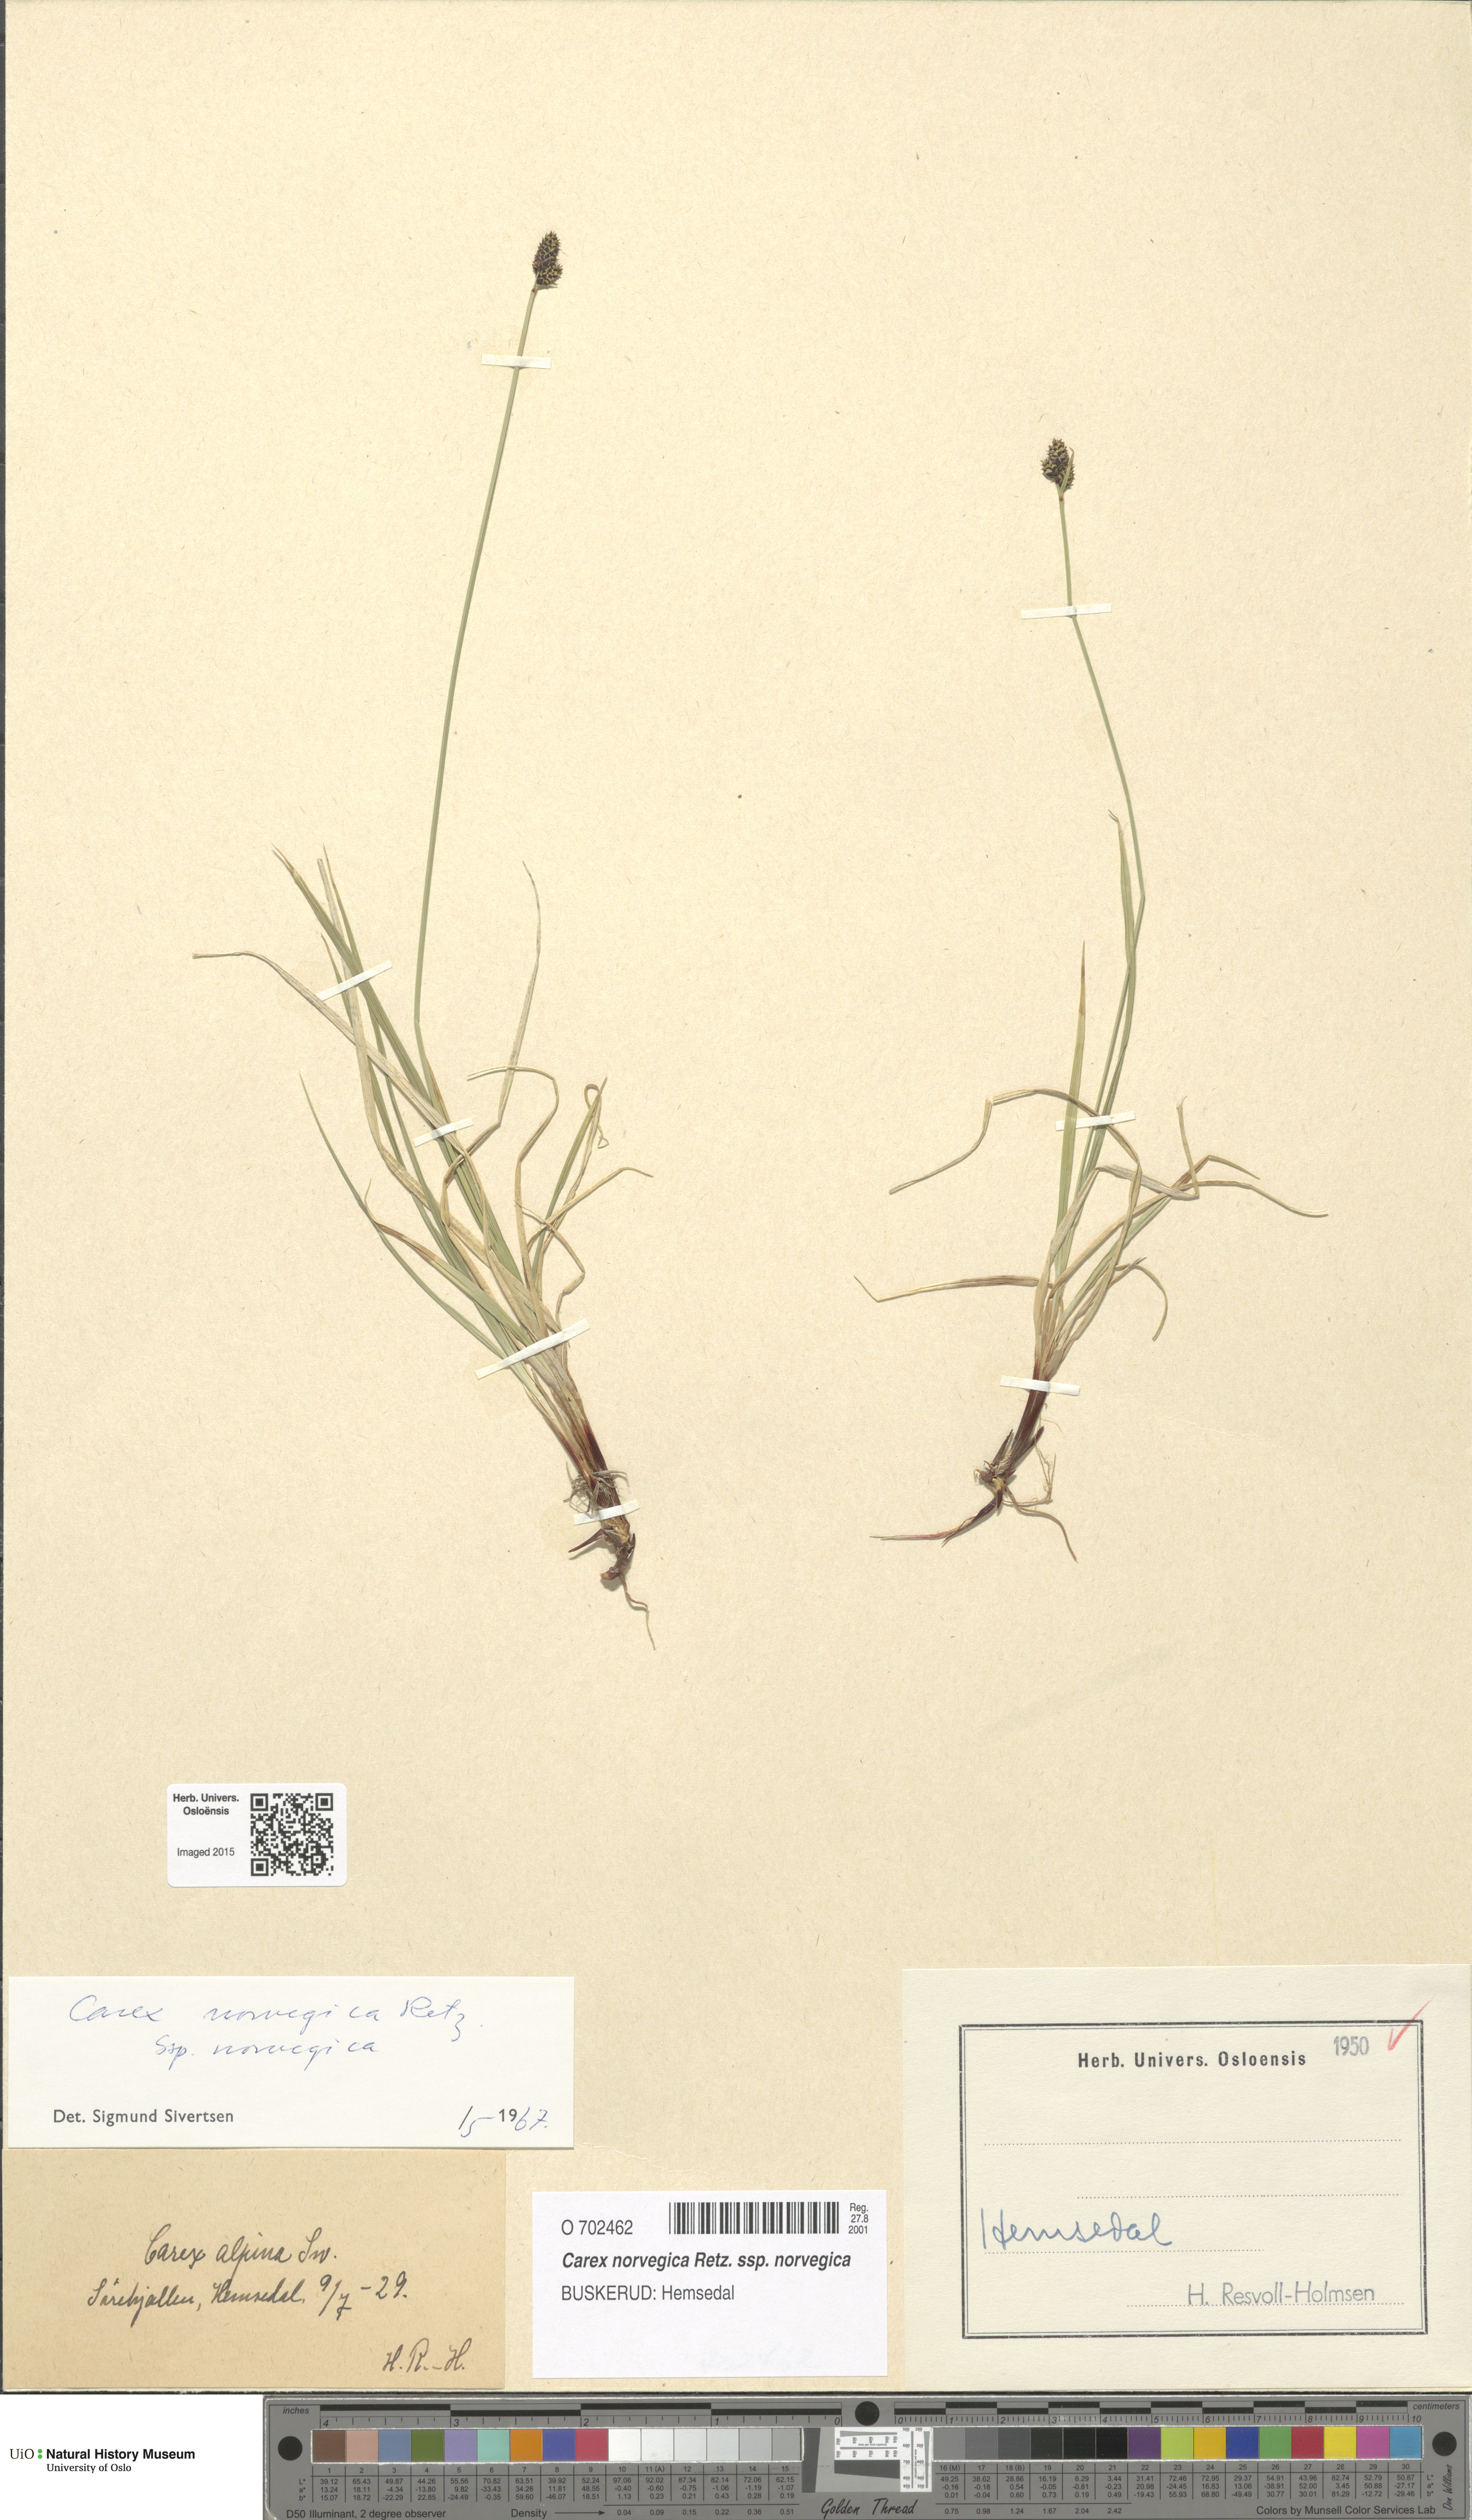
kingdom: Plantae
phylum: Tracheophyta
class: Liliopsida
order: Poales
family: Cyperaceae
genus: Carex
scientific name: Carex norvegica
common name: Close-headed alpine-sedge
